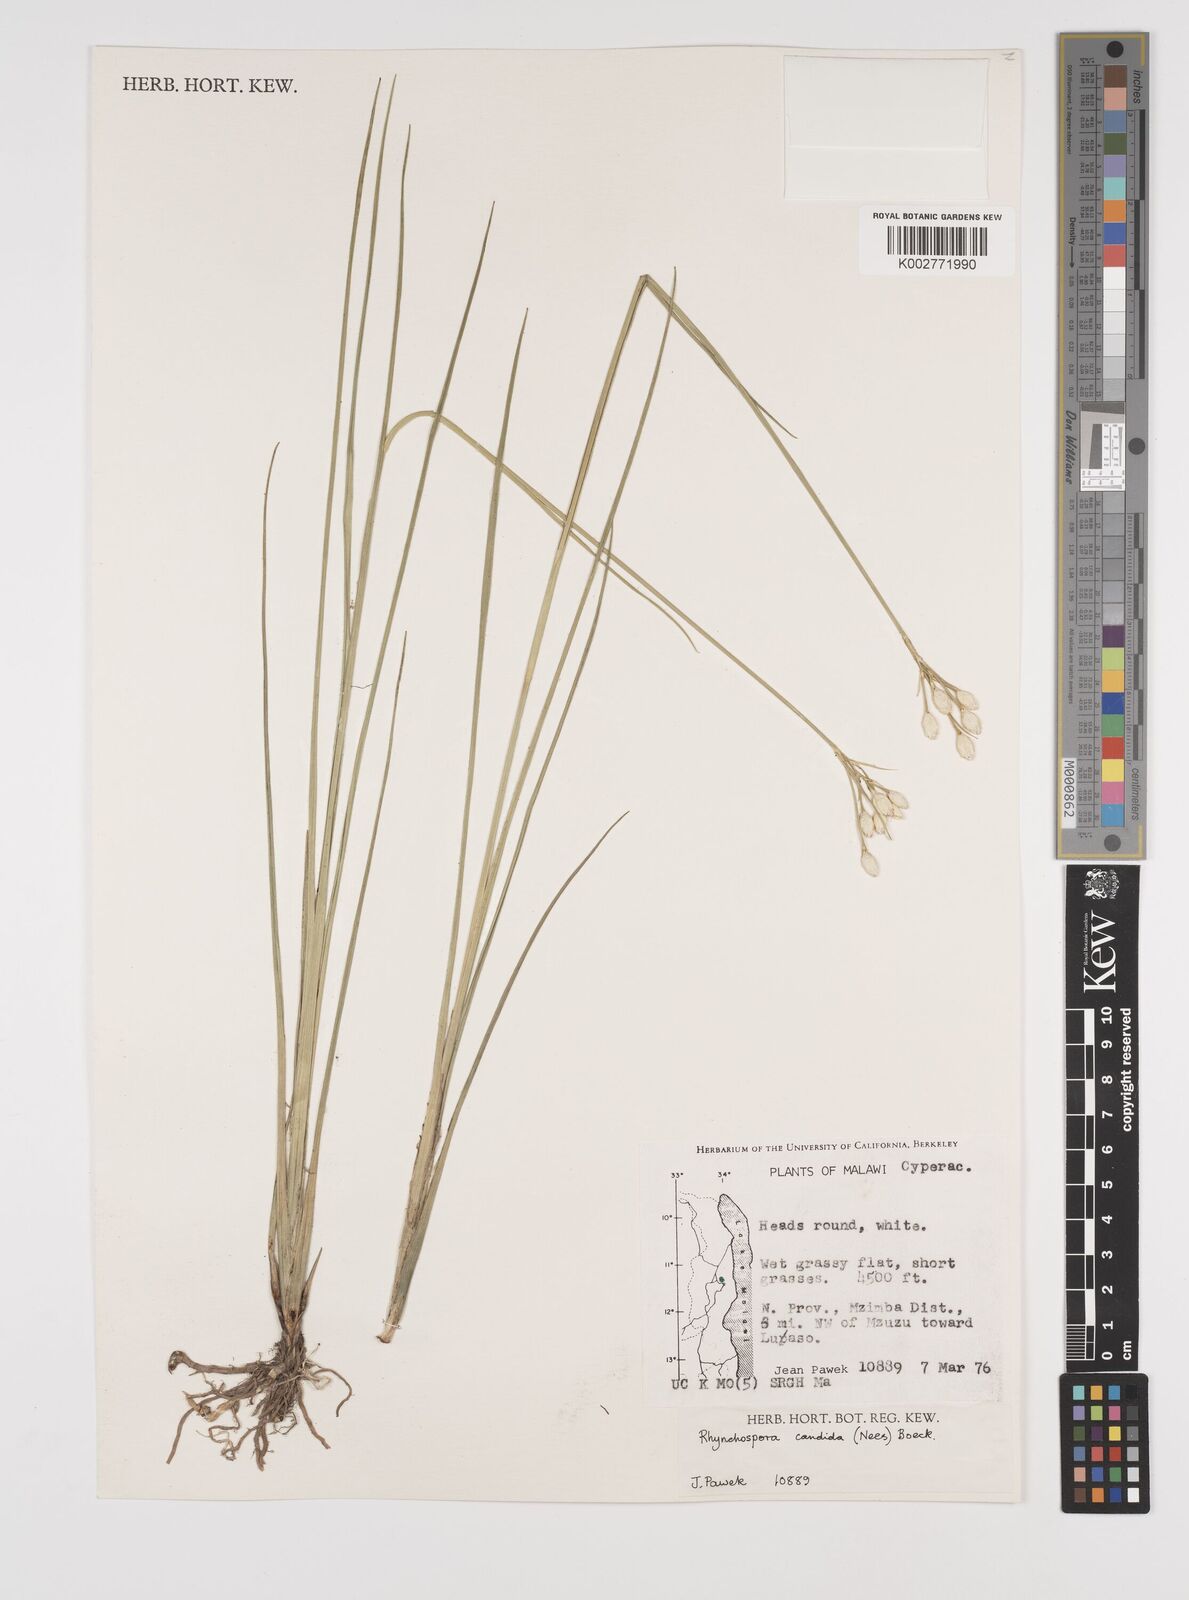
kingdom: Plantae
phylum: Tracheophyta
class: Liliopsida
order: Poales
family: Cyperaceae
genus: Rhynchospora
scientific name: Rhynchospora candida
